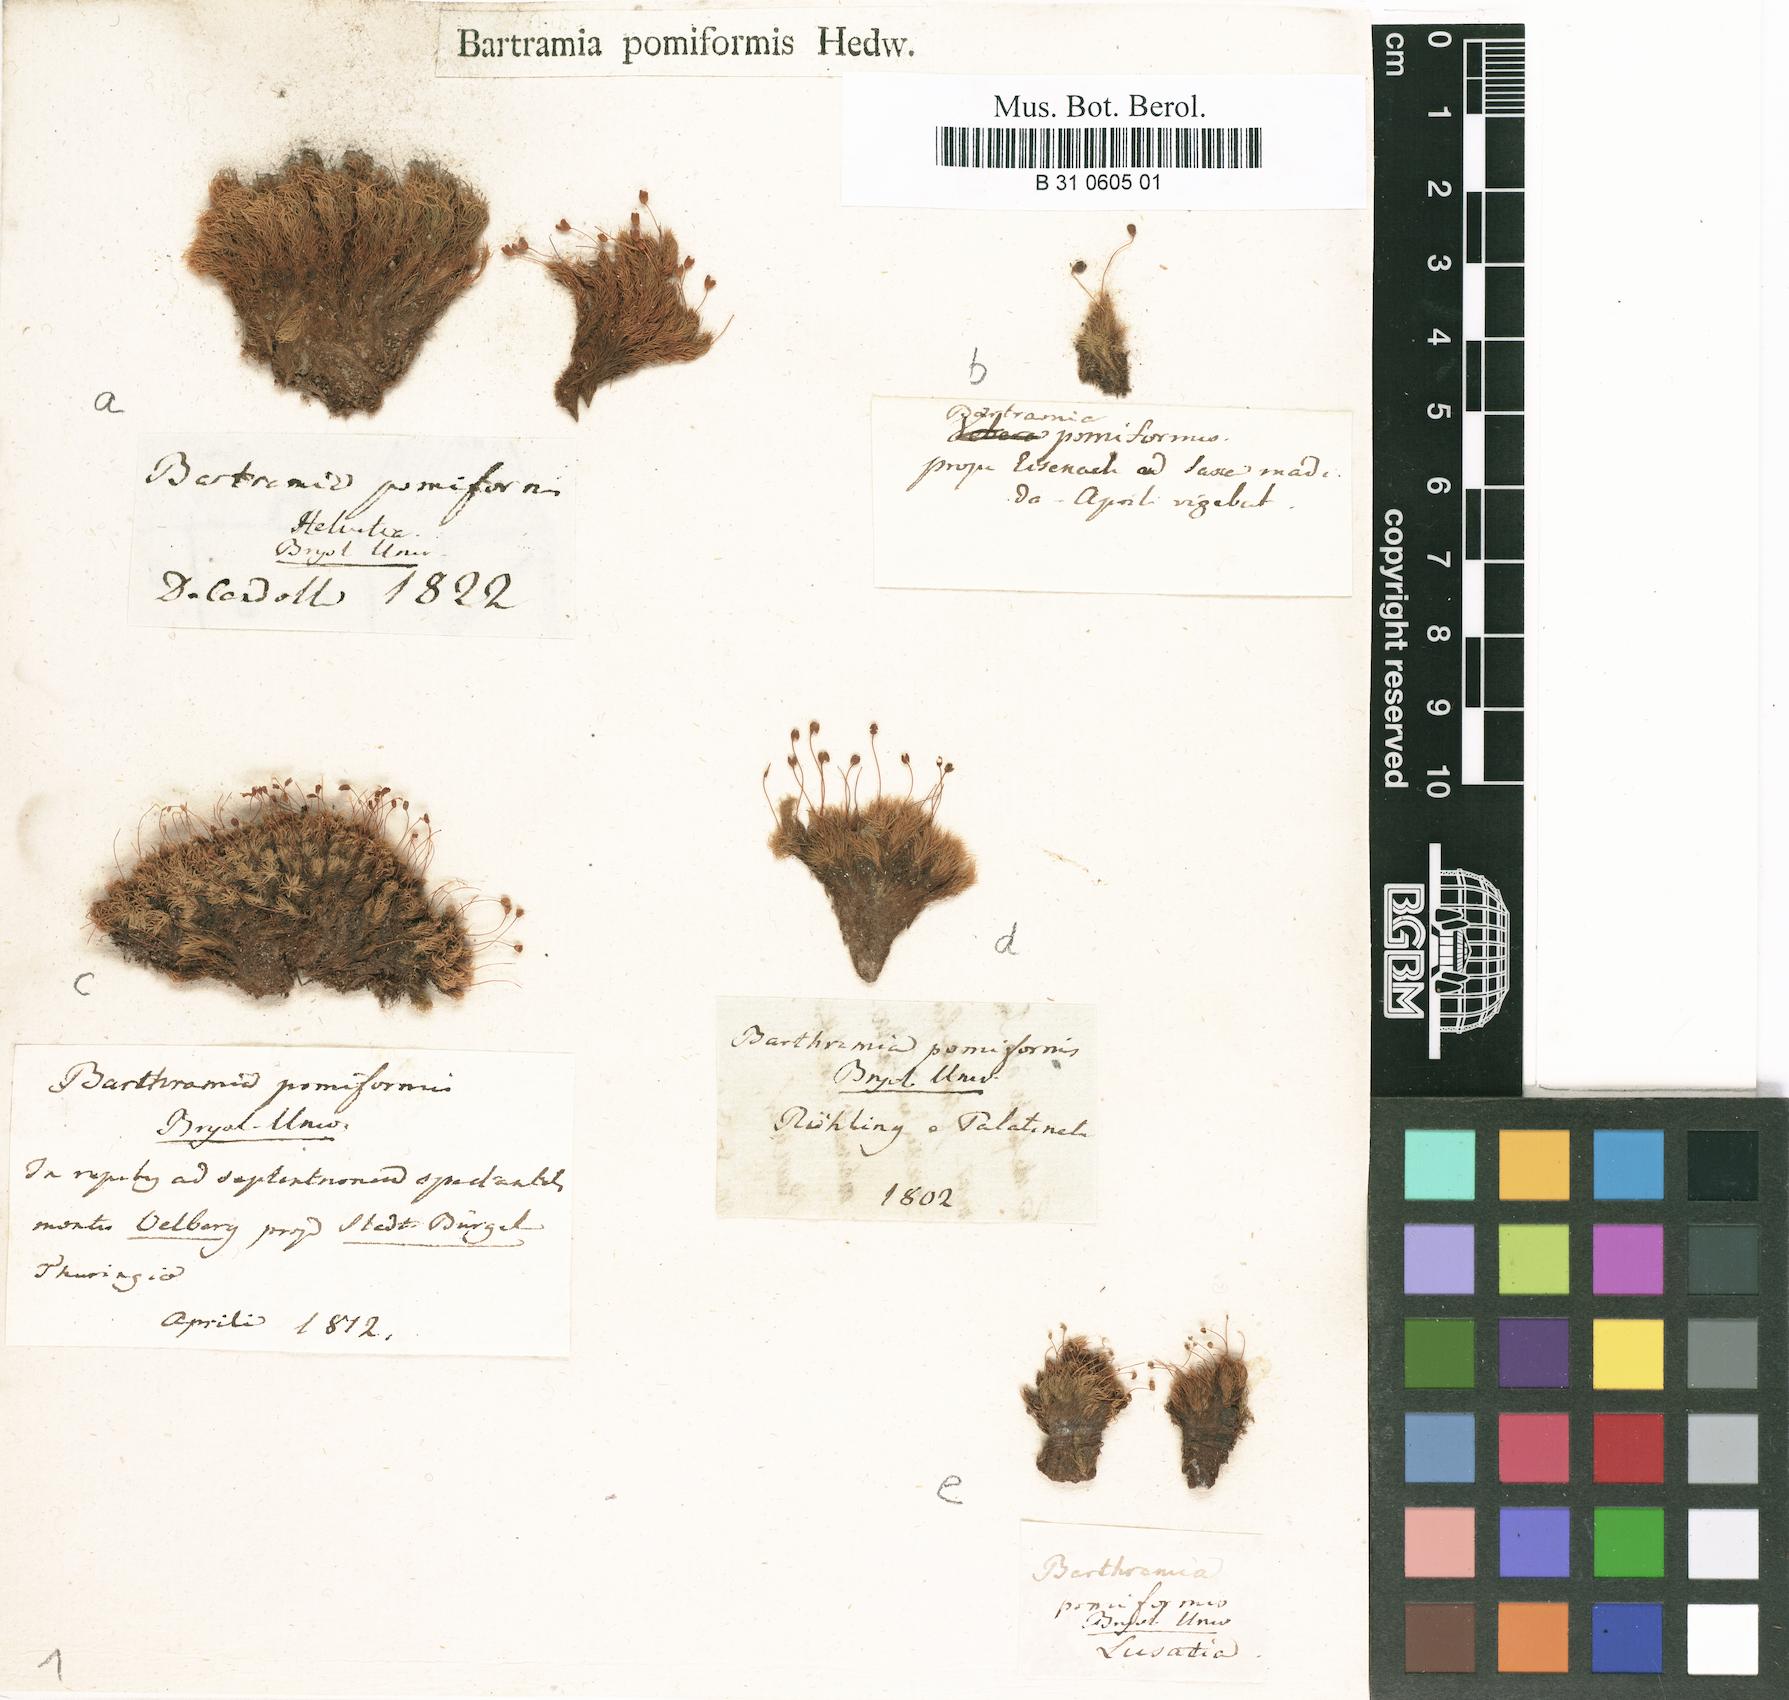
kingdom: Plantae
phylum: Bryophyta
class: Bryopsida
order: Bartramiales
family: Bartramiaceae
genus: Bartramia
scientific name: Bartramia pomiformis
